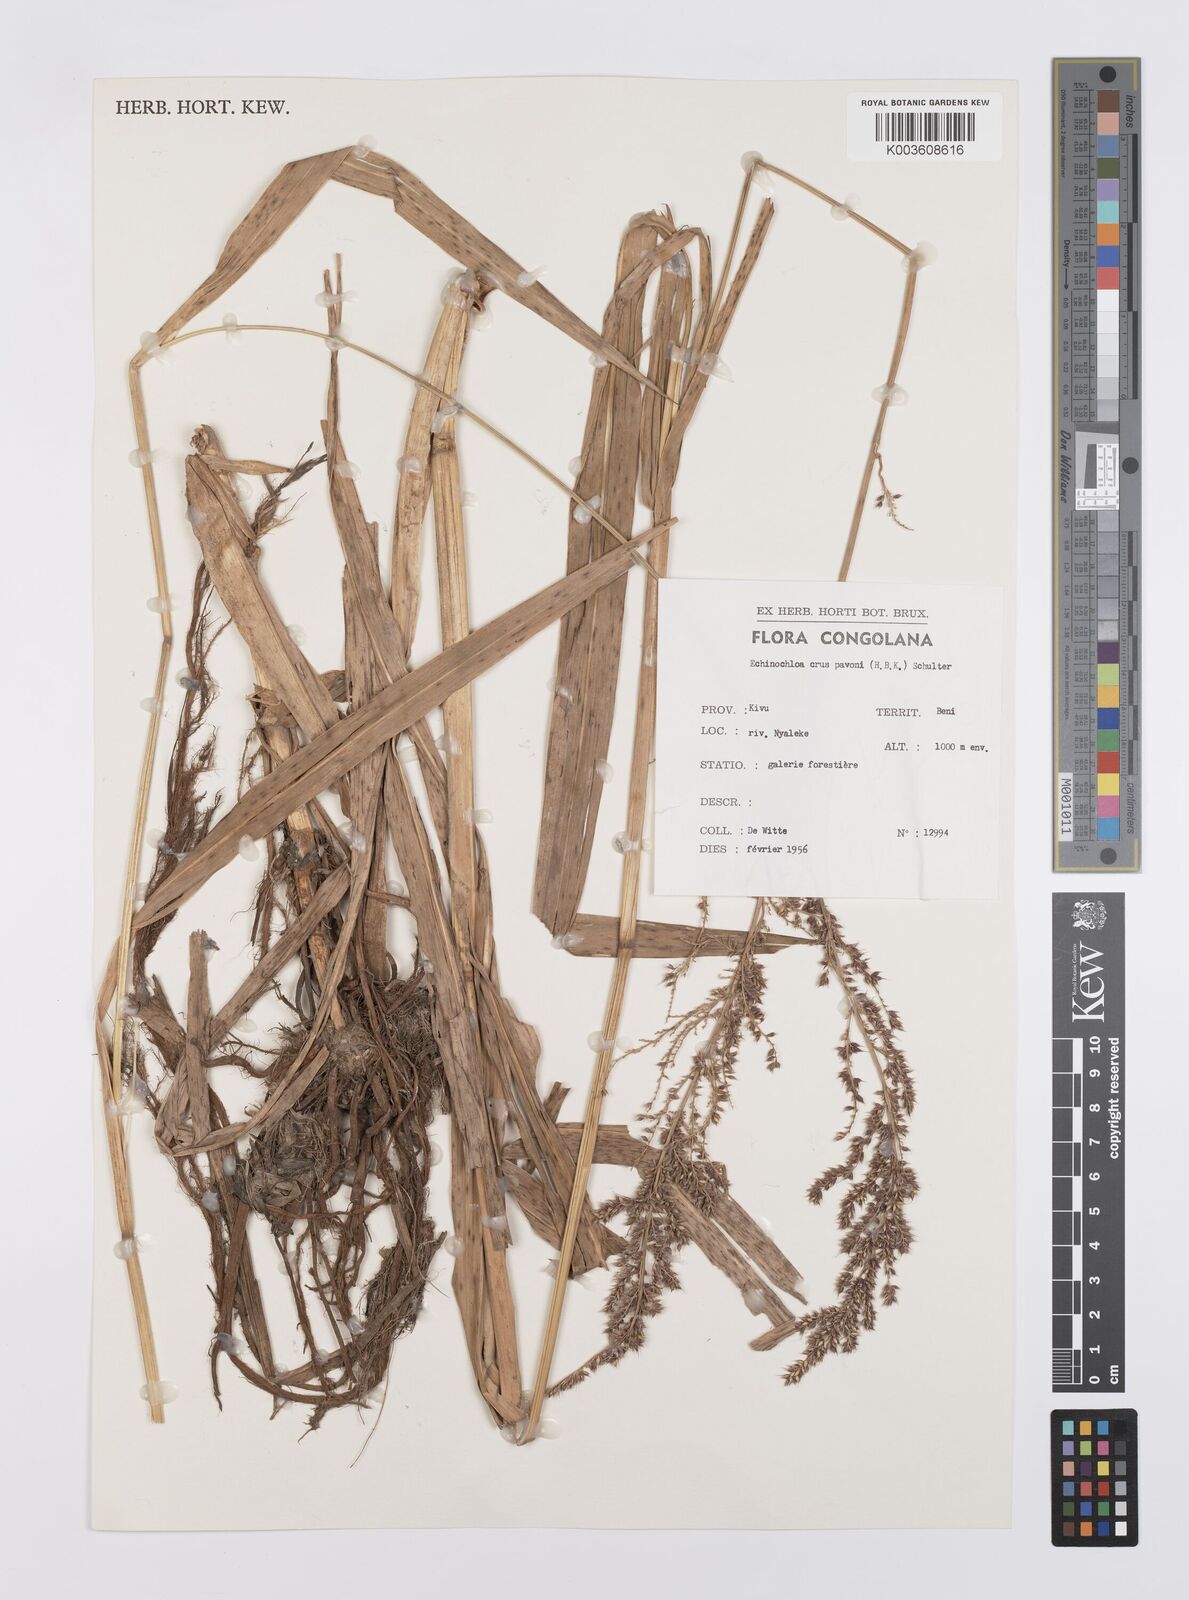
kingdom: Plantae
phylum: Tracheophyta
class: Liliopsida
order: Poales
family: Poaceae
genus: Echinochloa
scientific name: Echinochloa crus-pavonis
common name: Gulf cockspur grass
